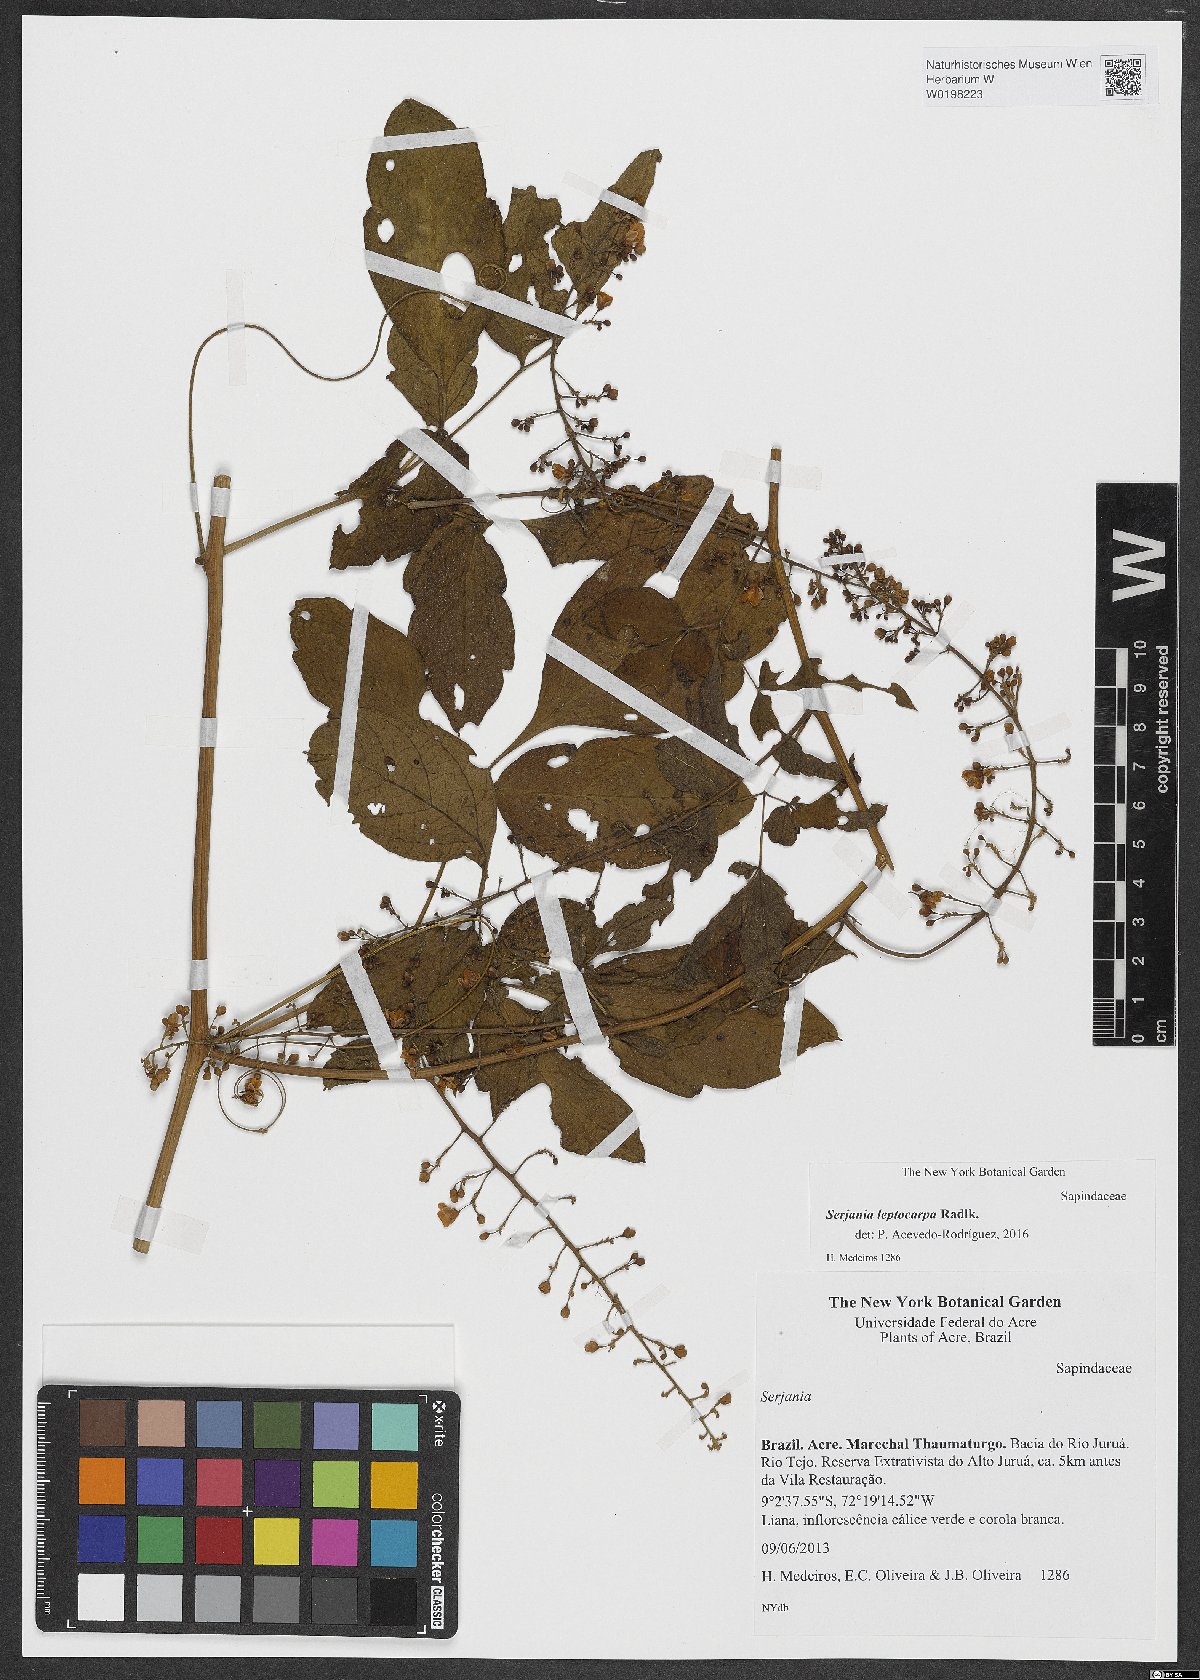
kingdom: Plantae
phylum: Tracheophyta
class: Magnoliopsida
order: Sapindales
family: Sapindaceae
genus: Serjania
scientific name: Serjania leptocarpa
